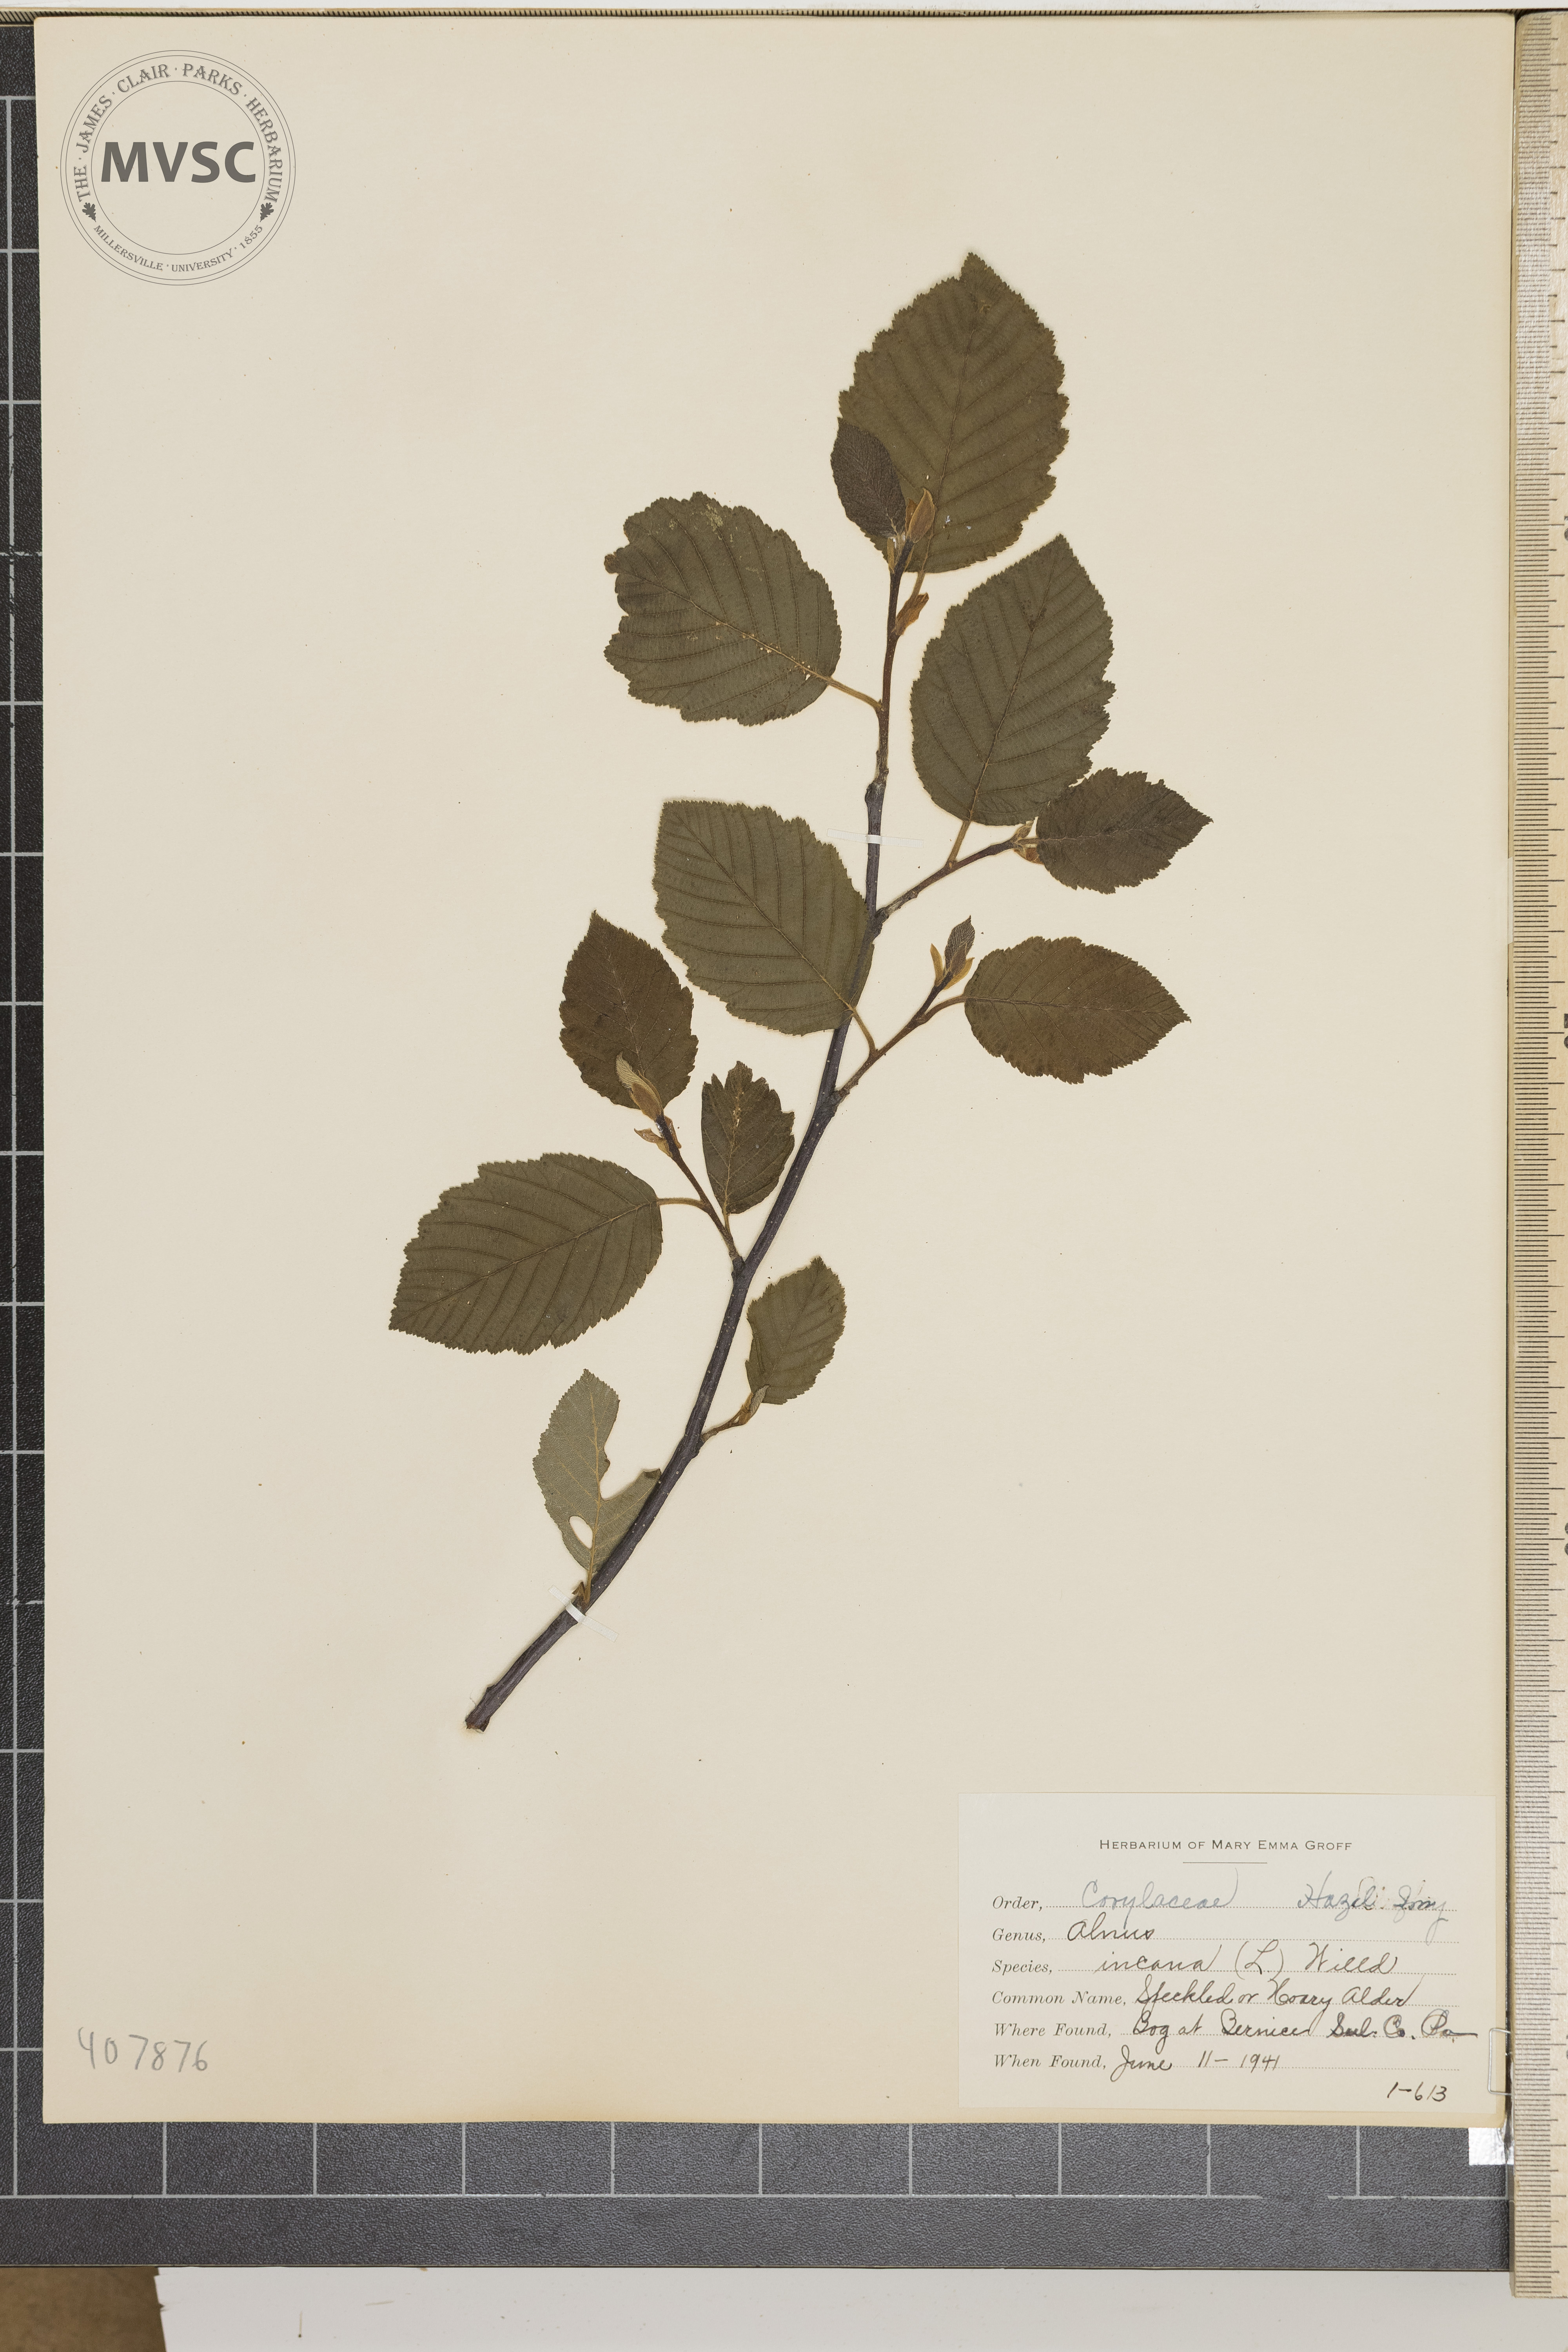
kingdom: Plantae
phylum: Tracheophyta
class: Magnoliopsida
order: Fagales
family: Betulaceae
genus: Alnus
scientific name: Alnus incana
